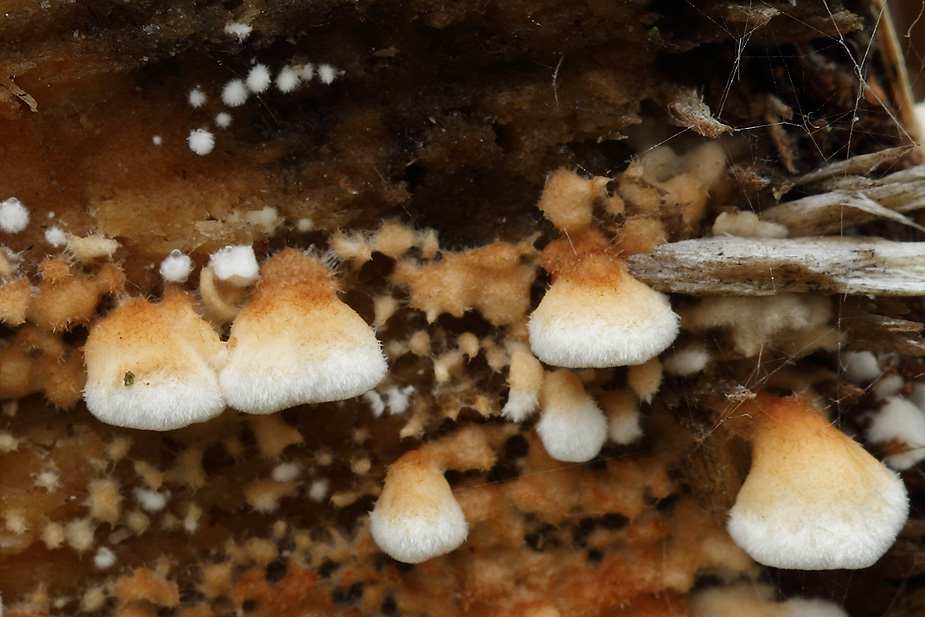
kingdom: Fungi
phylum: Basidiomycota
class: Agaricomycetes
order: Amylocorticiales
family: Amylocorticiaceae
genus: Plicaturopsis
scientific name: Plicaturopsis crispa
